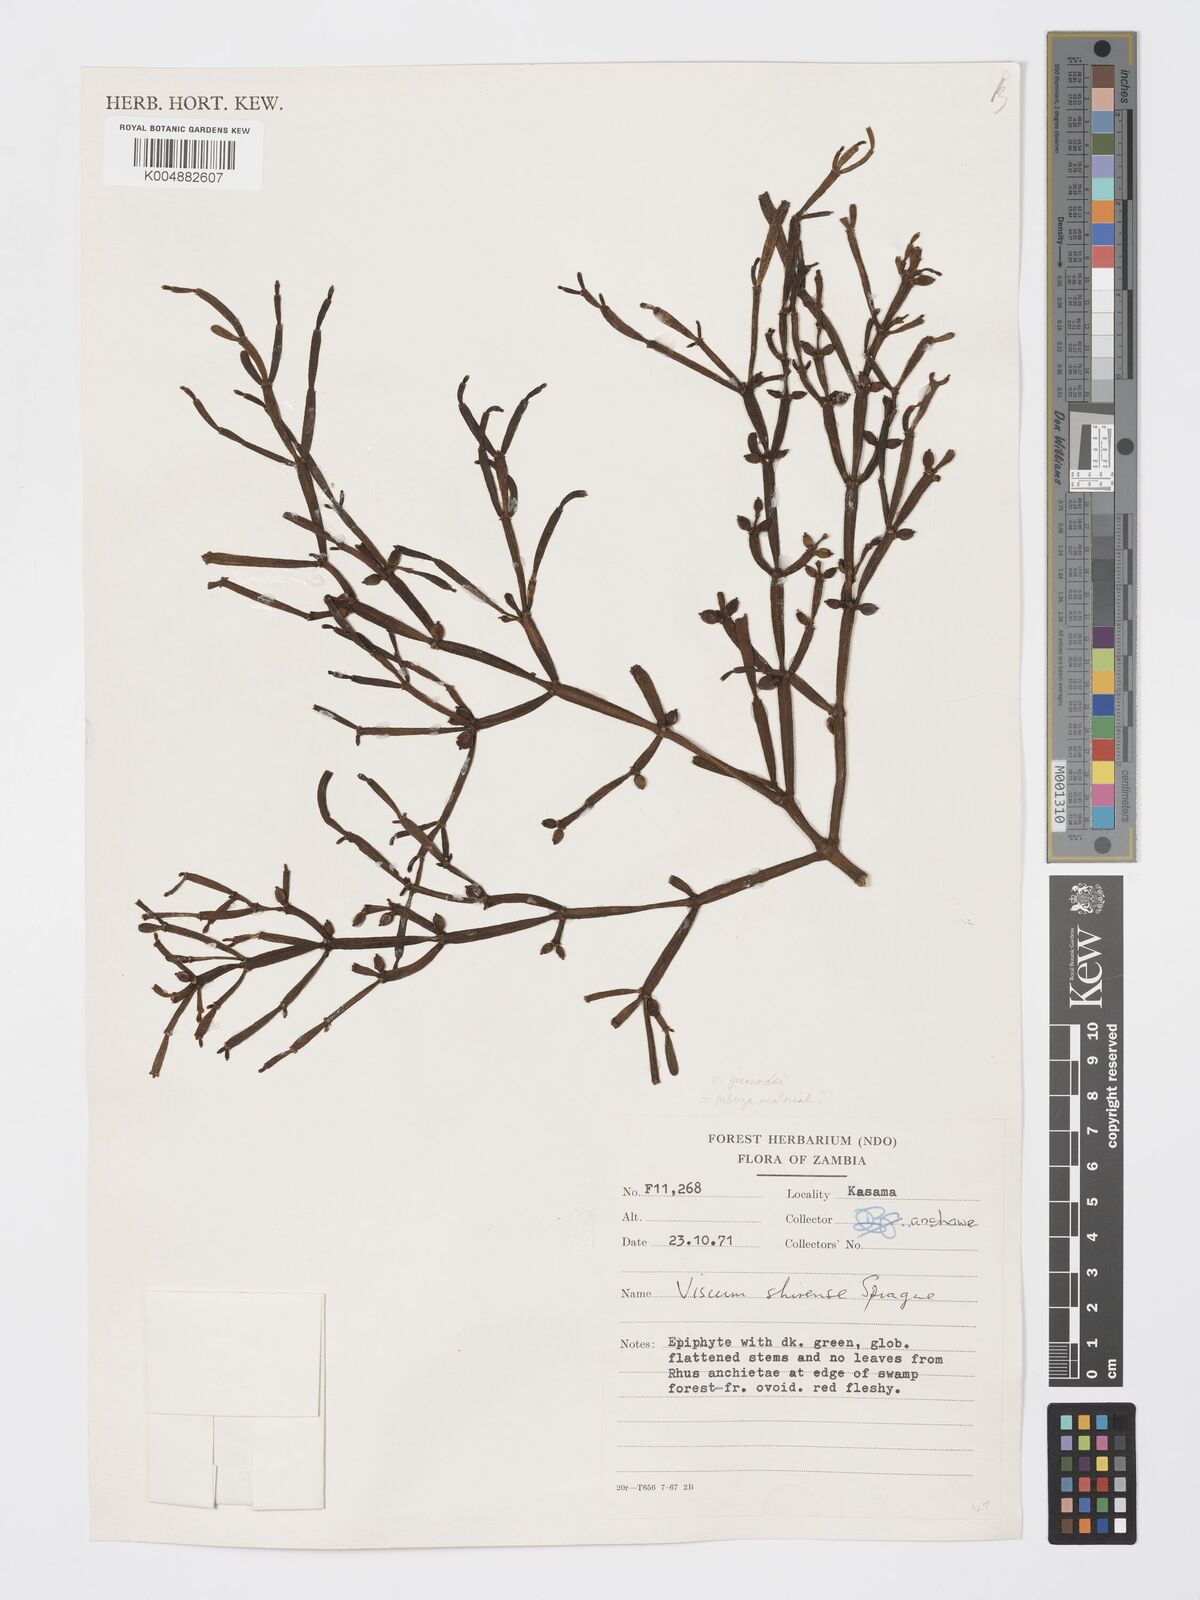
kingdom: Plantae
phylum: Tracheophyta
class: Magnoliopsida
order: Santalales
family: Viscaceae
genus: Viscum
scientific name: Viscum junodii
